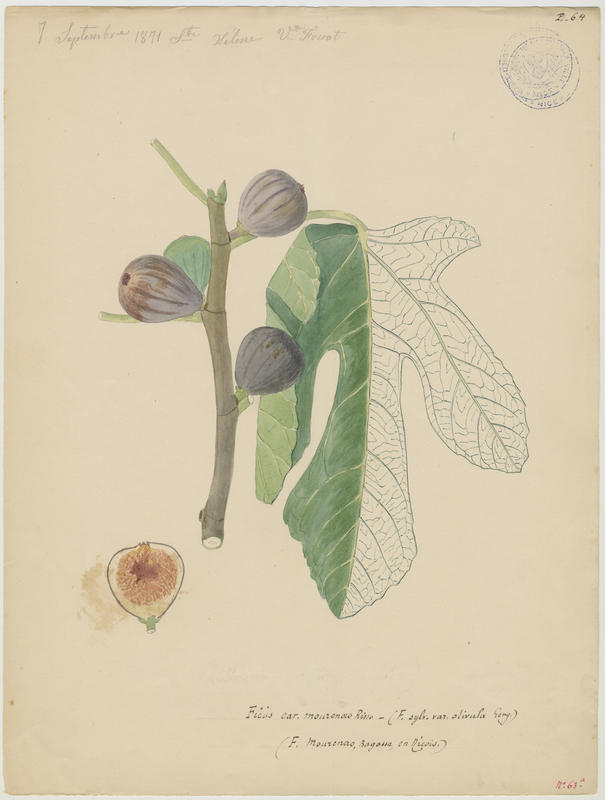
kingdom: Plantae
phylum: Tracheophyta
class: Magnoliopsida
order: Rosales
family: Moraceae
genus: Ficus
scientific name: Ficus carica
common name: Fig
